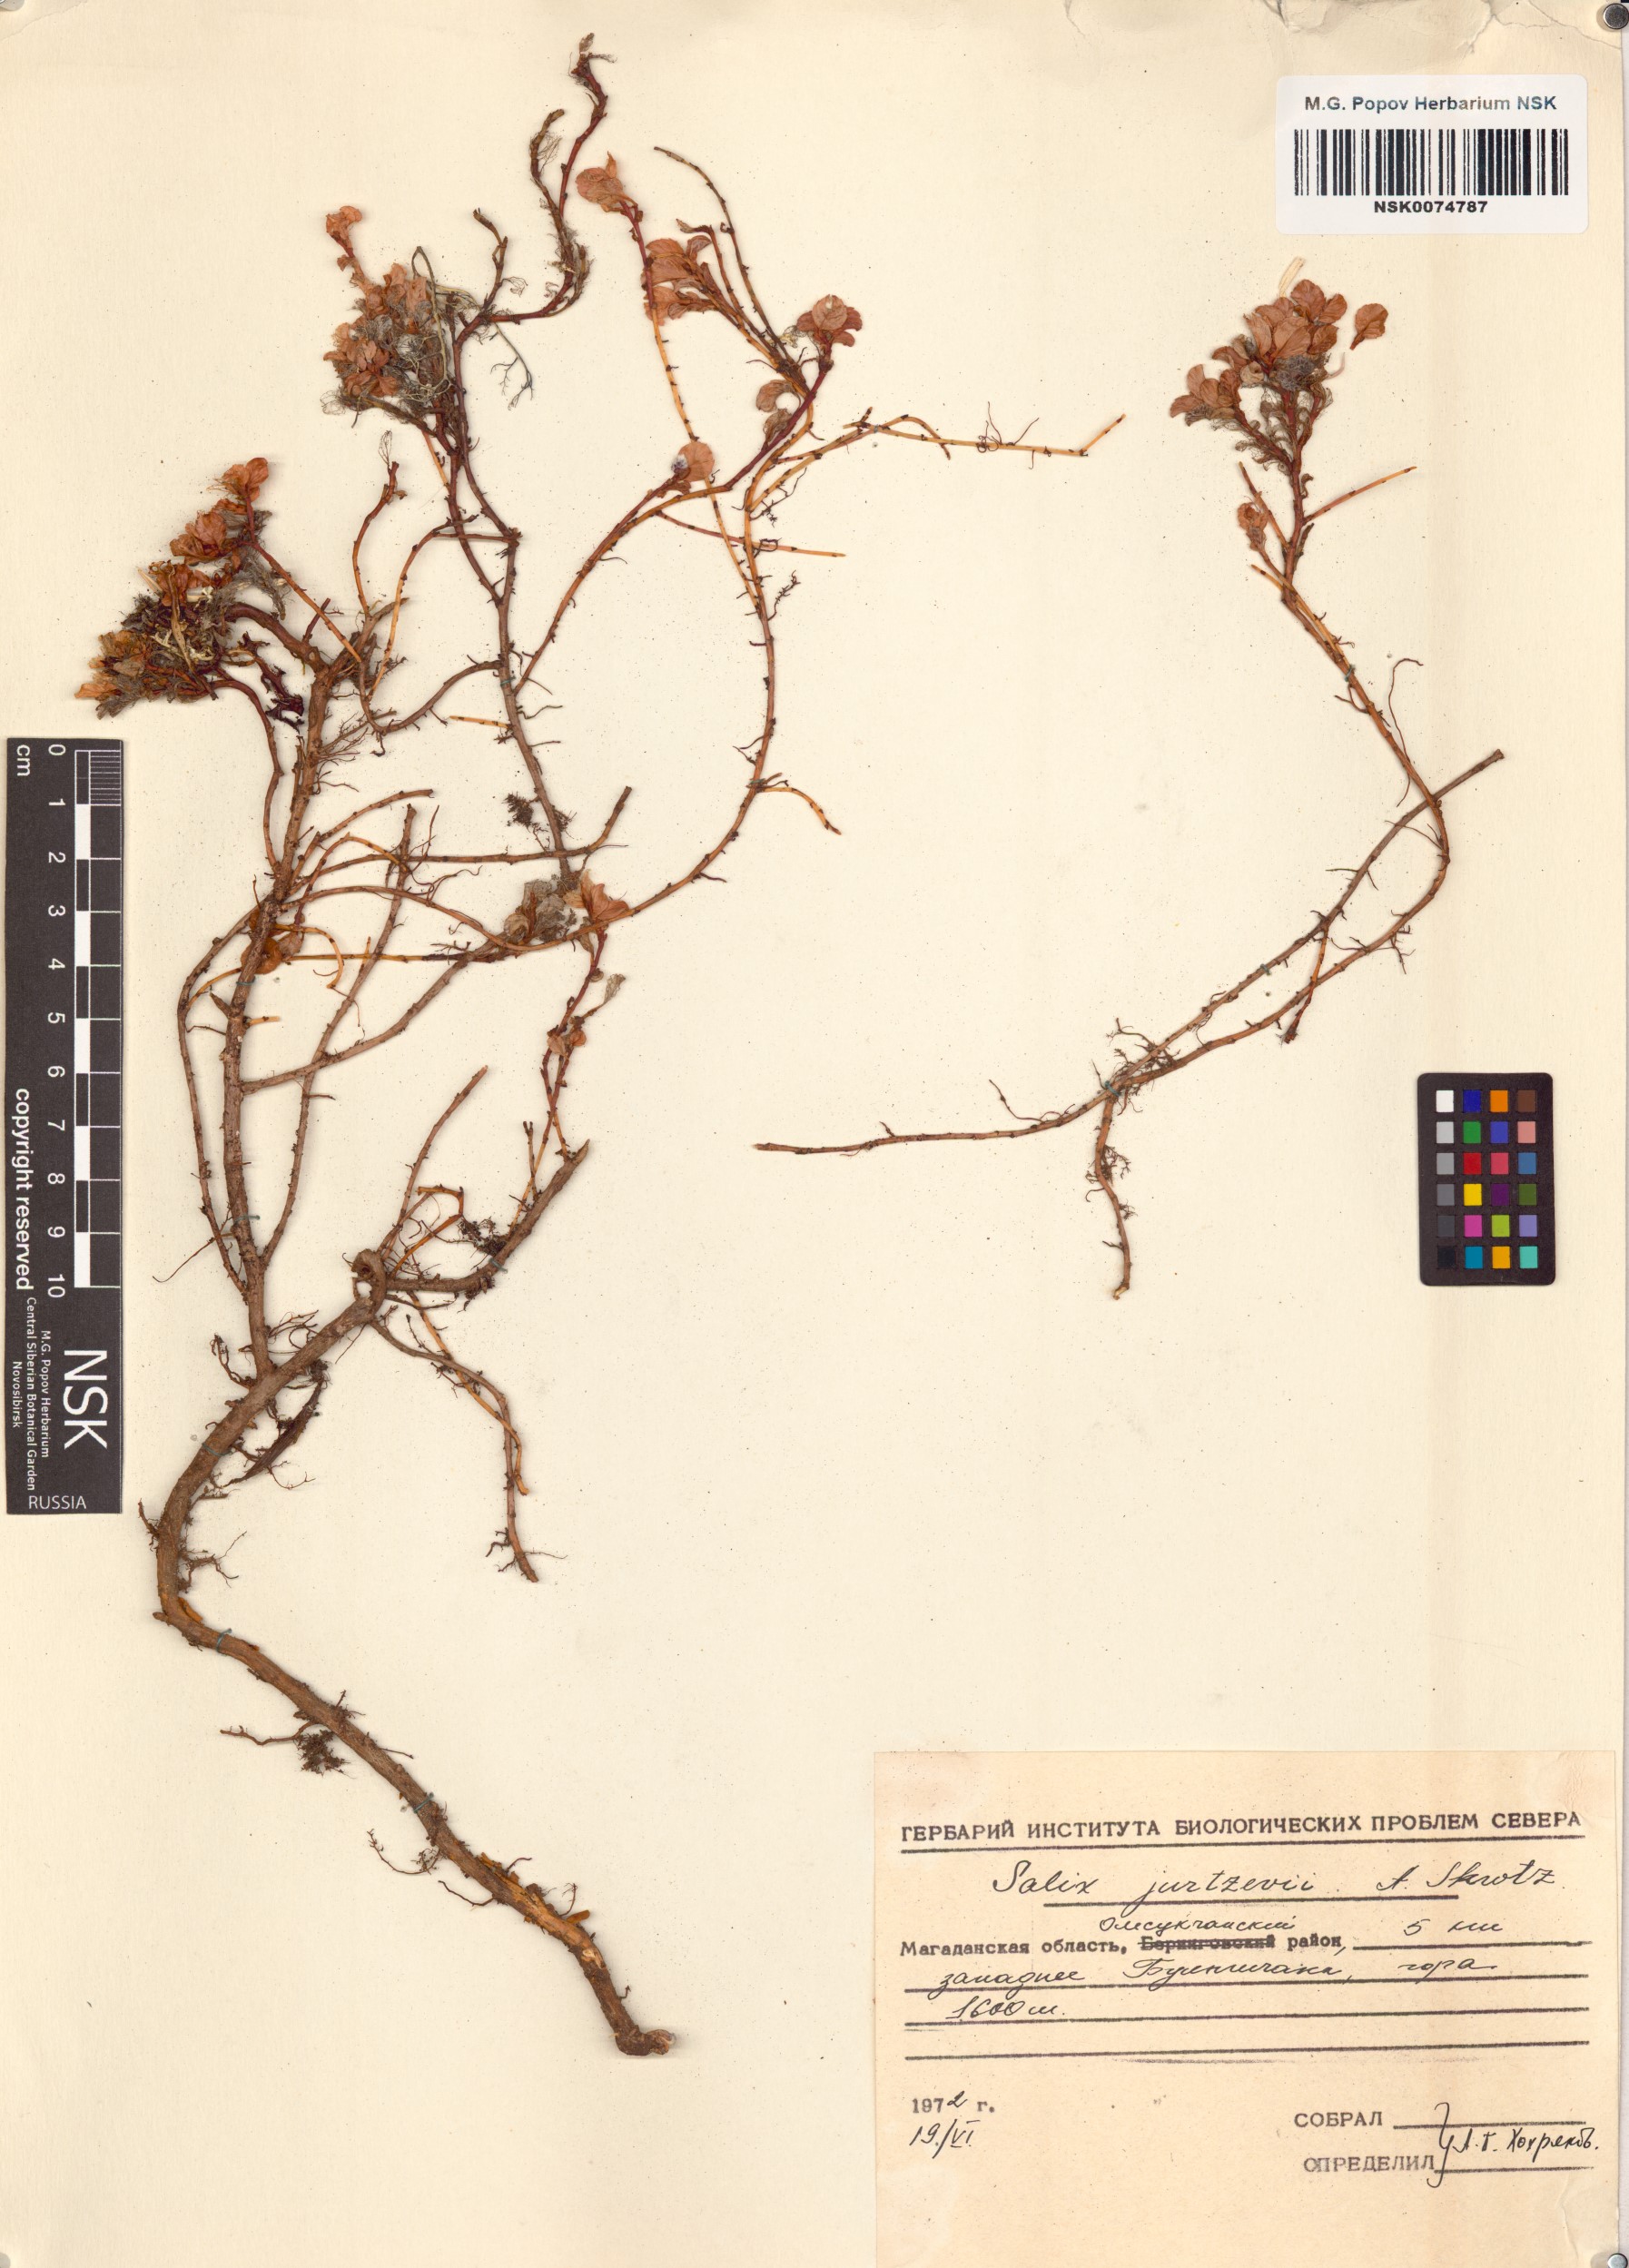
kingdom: Plantae
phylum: Tracheophyta
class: Magnoliopsida
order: Malpighiales
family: Salicaceae
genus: Salix
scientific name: Salix jurtzevii
